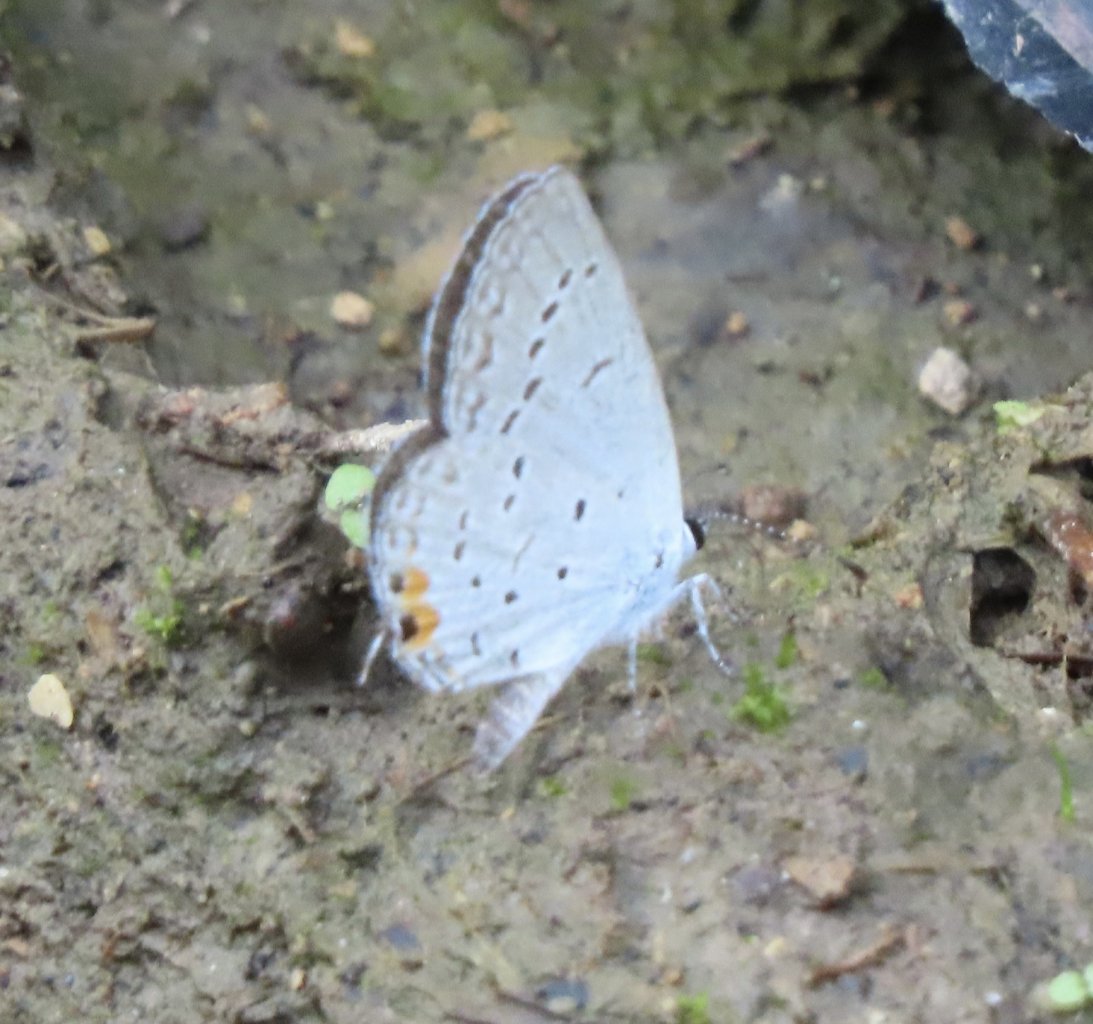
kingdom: Animalia
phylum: Arthropoda
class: Insecta
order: Lepidoptera
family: Lycaenidae
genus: Elkalyce
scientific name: Elkalyce comyntas
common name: Eastern Tailed-Blue
